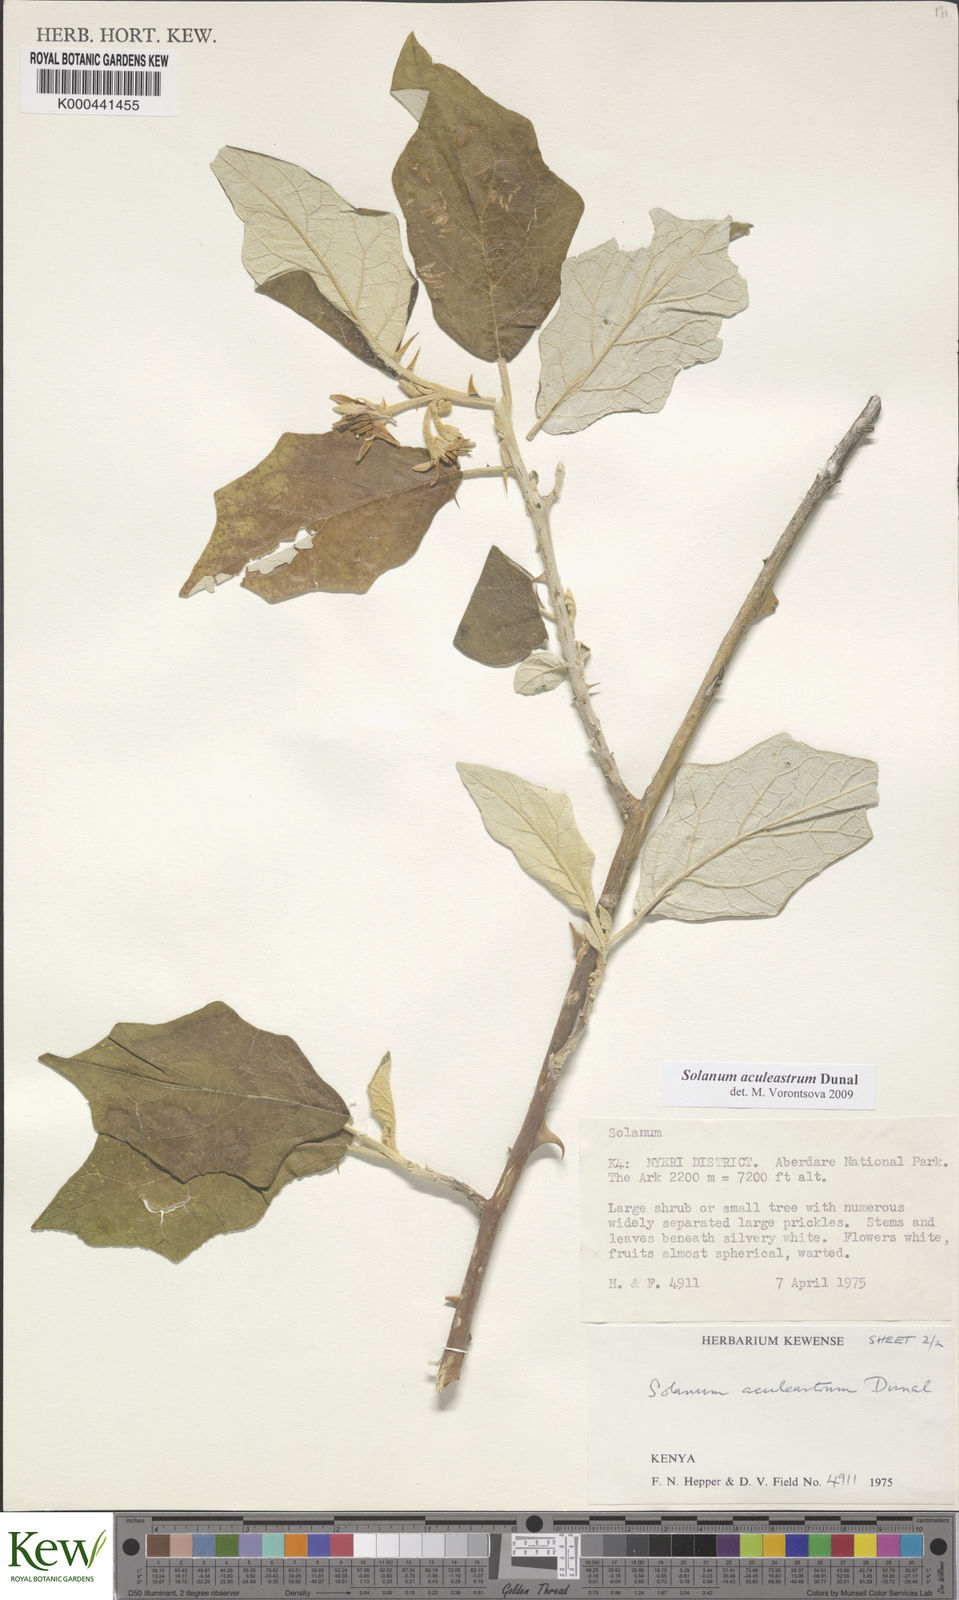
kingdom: Plantae
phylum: Tracheophyta
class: Magnoliopsida
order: Solanales
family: Solanaceae
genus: Solanum
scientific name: Solanum aculeastrum
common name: Goat bitter-apple
